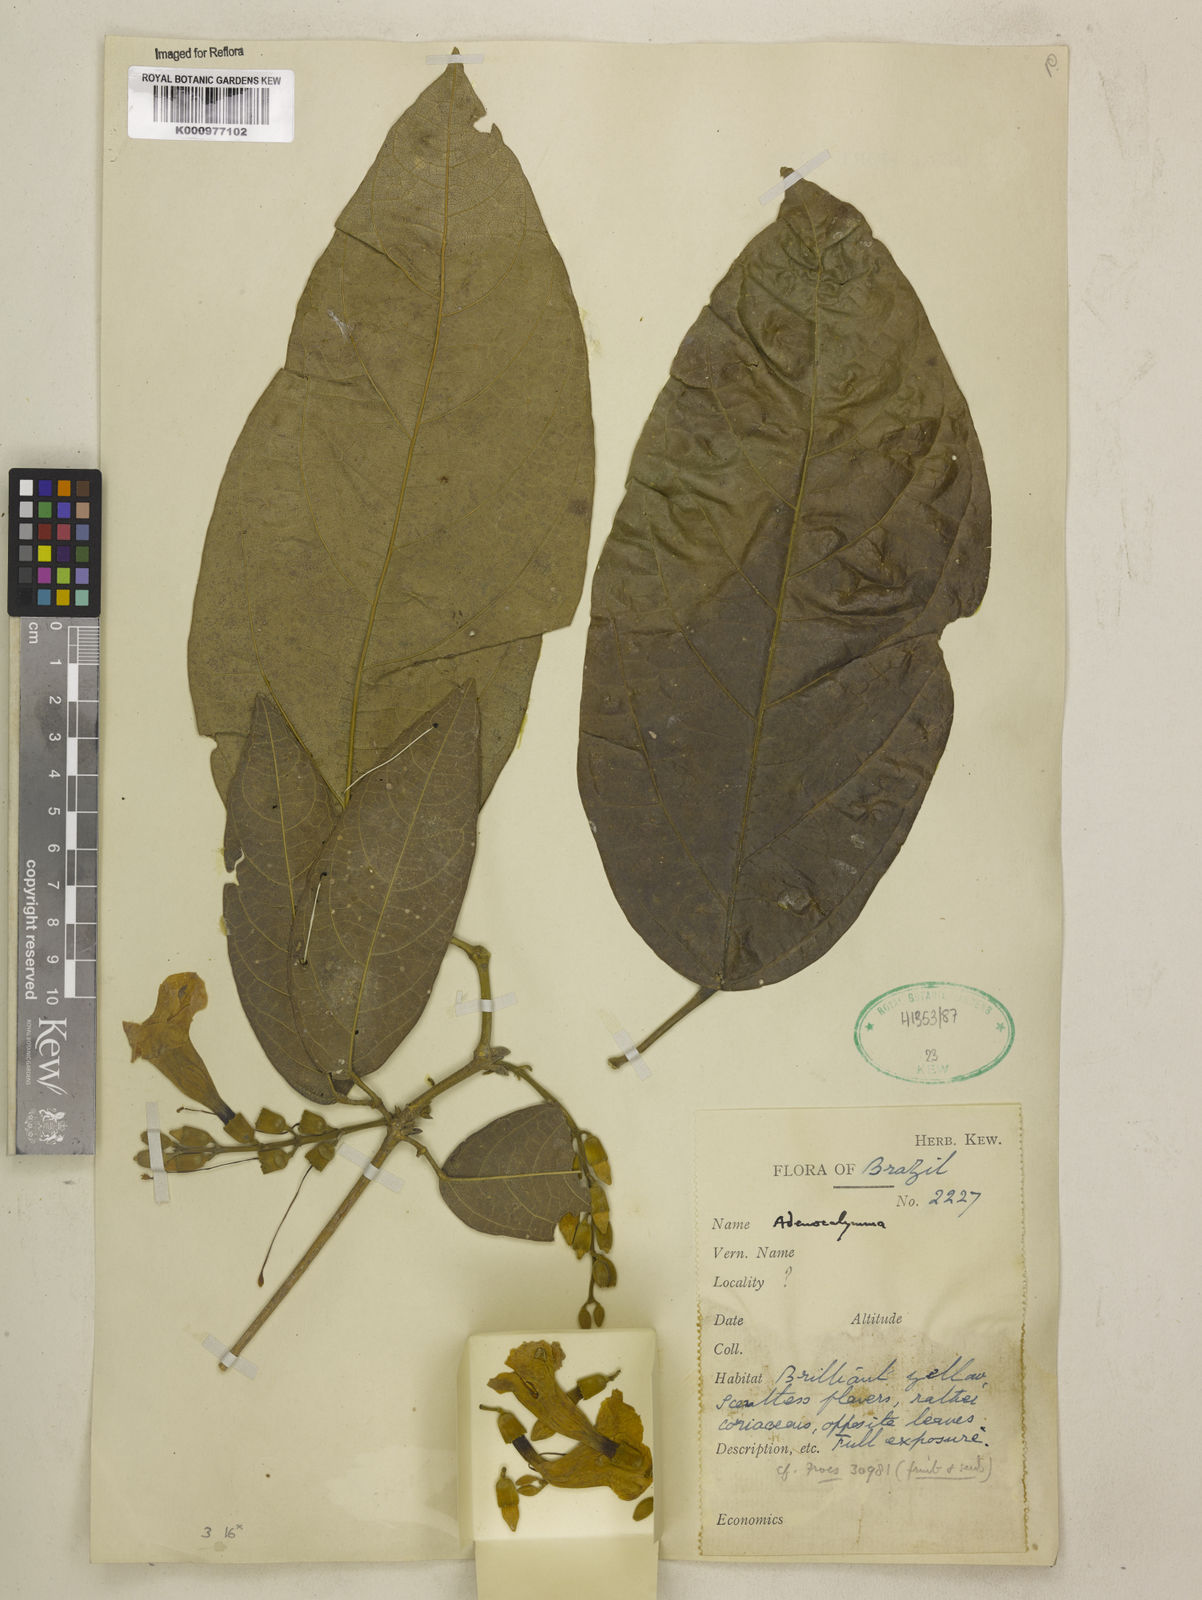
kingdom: Plantae
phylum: Tracheophyta
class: Magnoliopsida
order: Lamiales
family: Bignoniaceae
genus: Adenocalymma
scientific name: Adenocalymma
